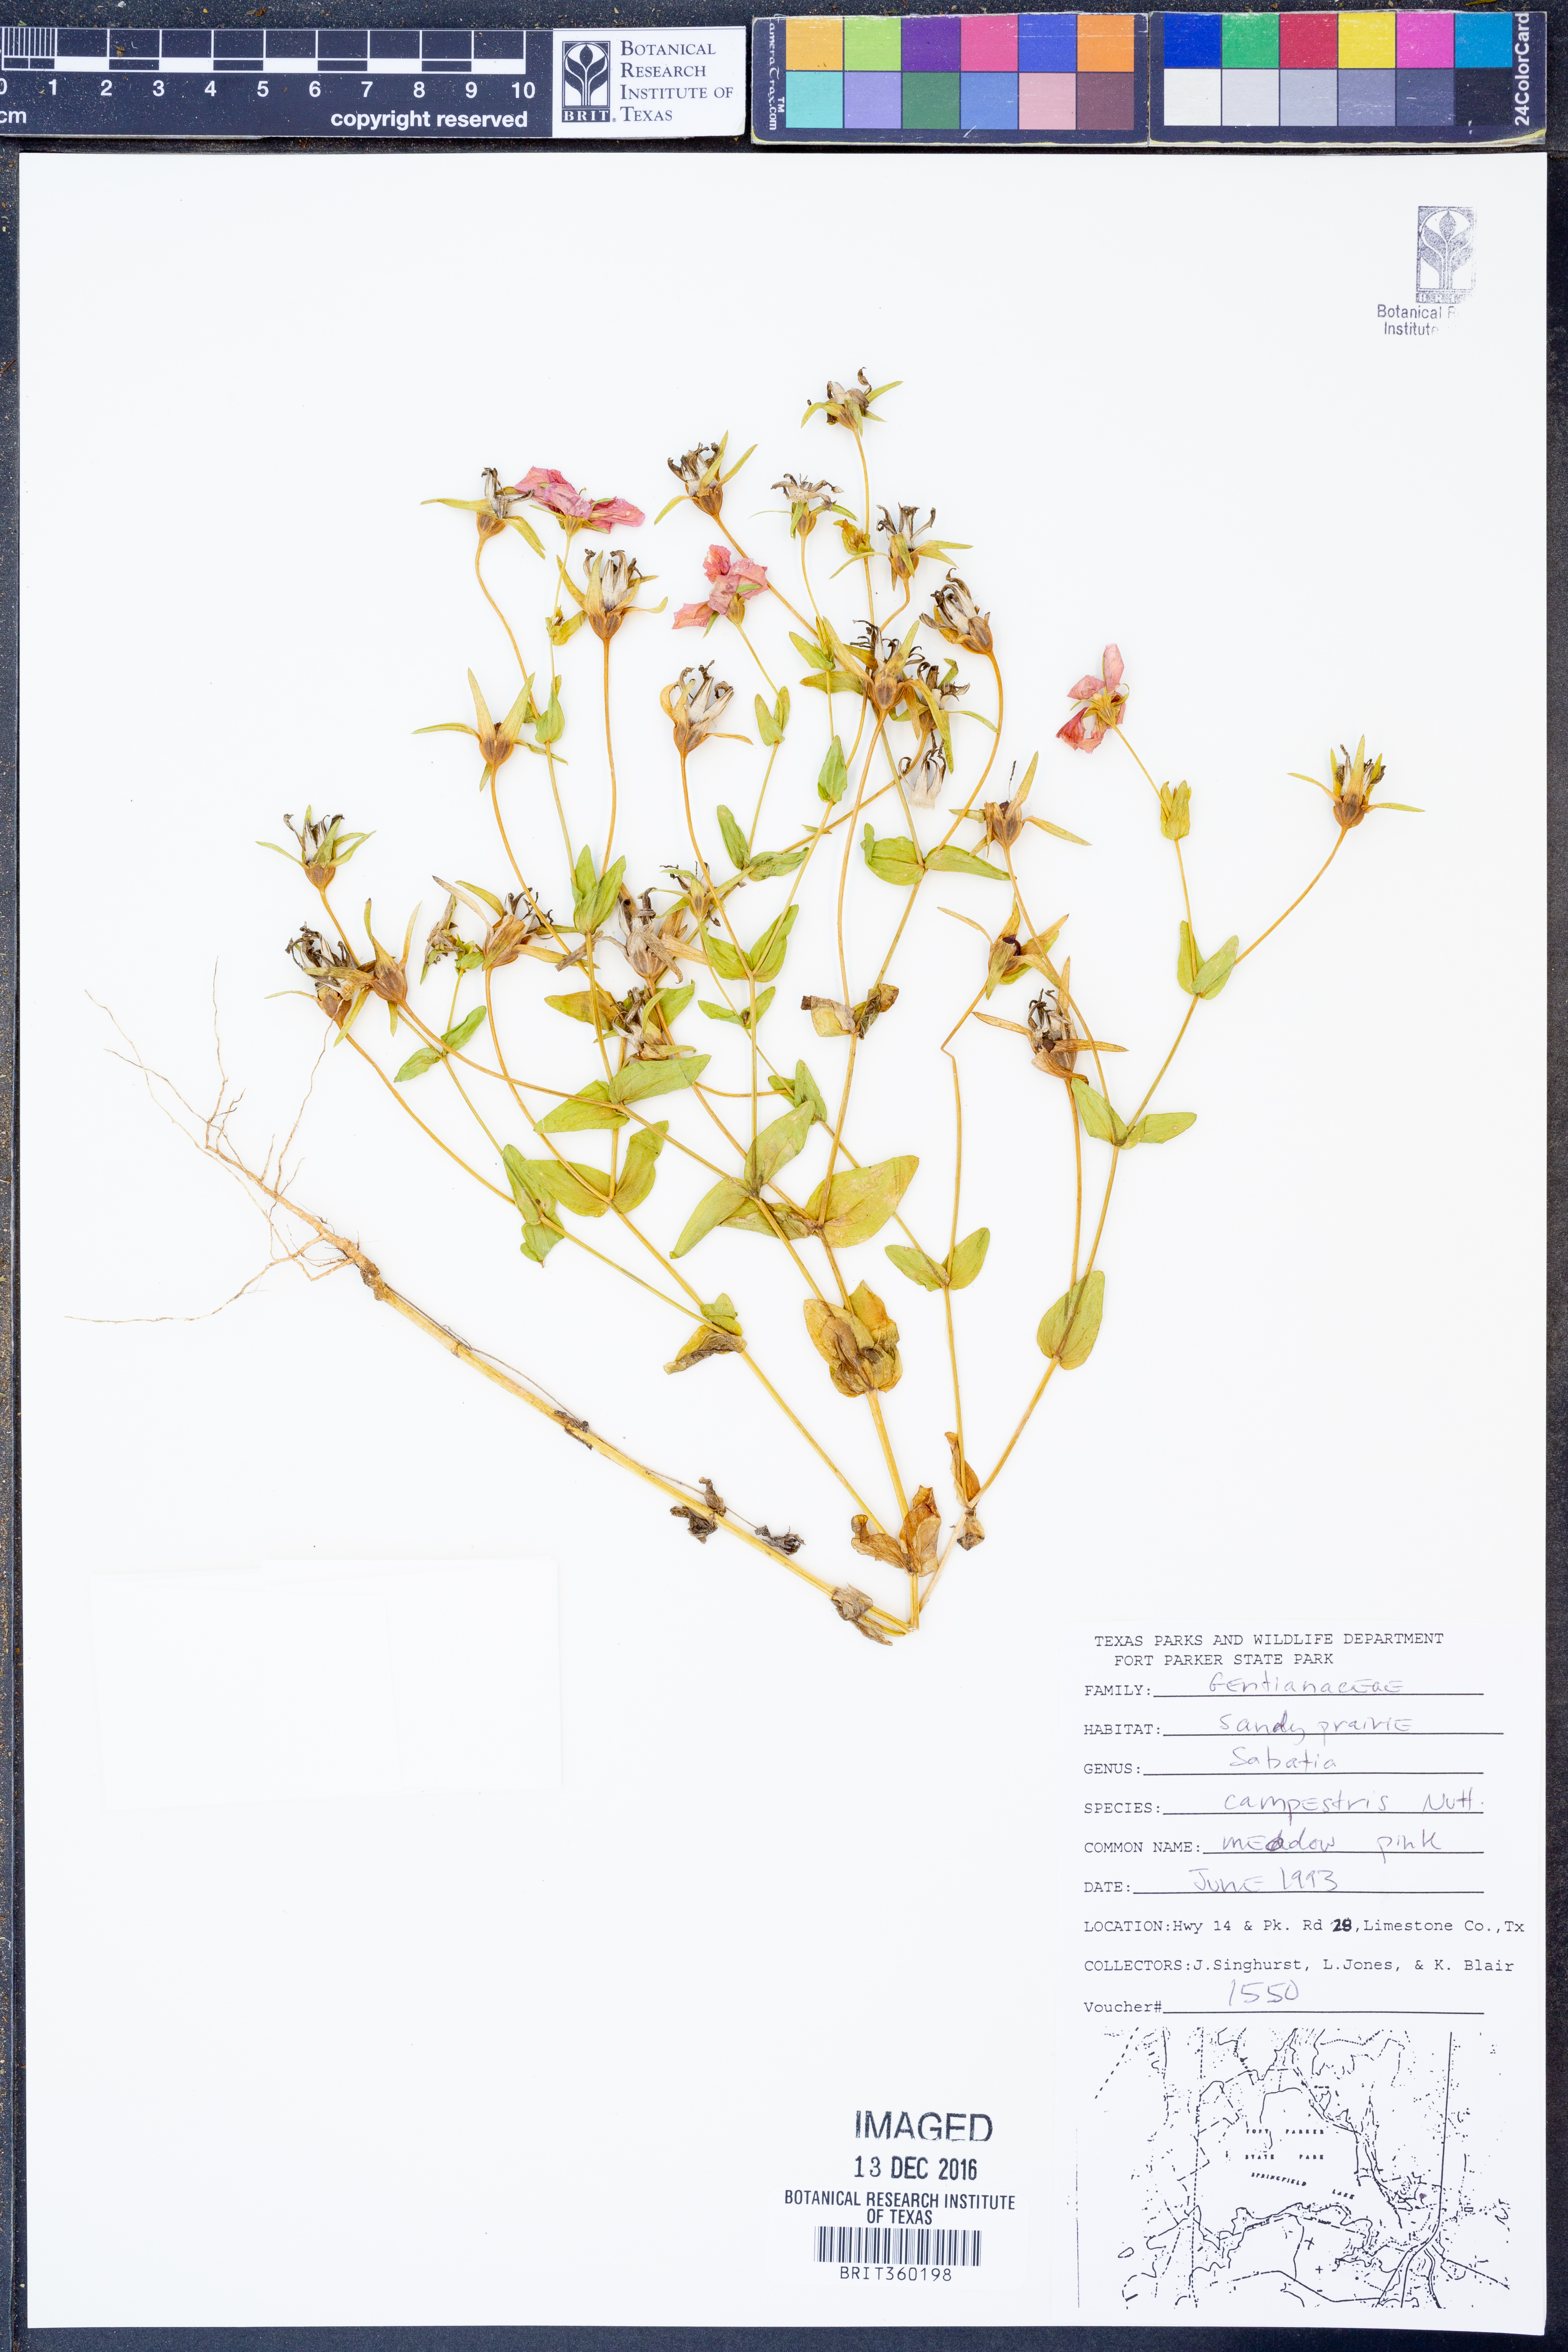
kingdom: Plantae
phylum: Tracheophyta
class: Magnoliopsida
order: Gentianales
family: Gentianaceae
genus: Sabatia
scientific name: Sabatia campestris
